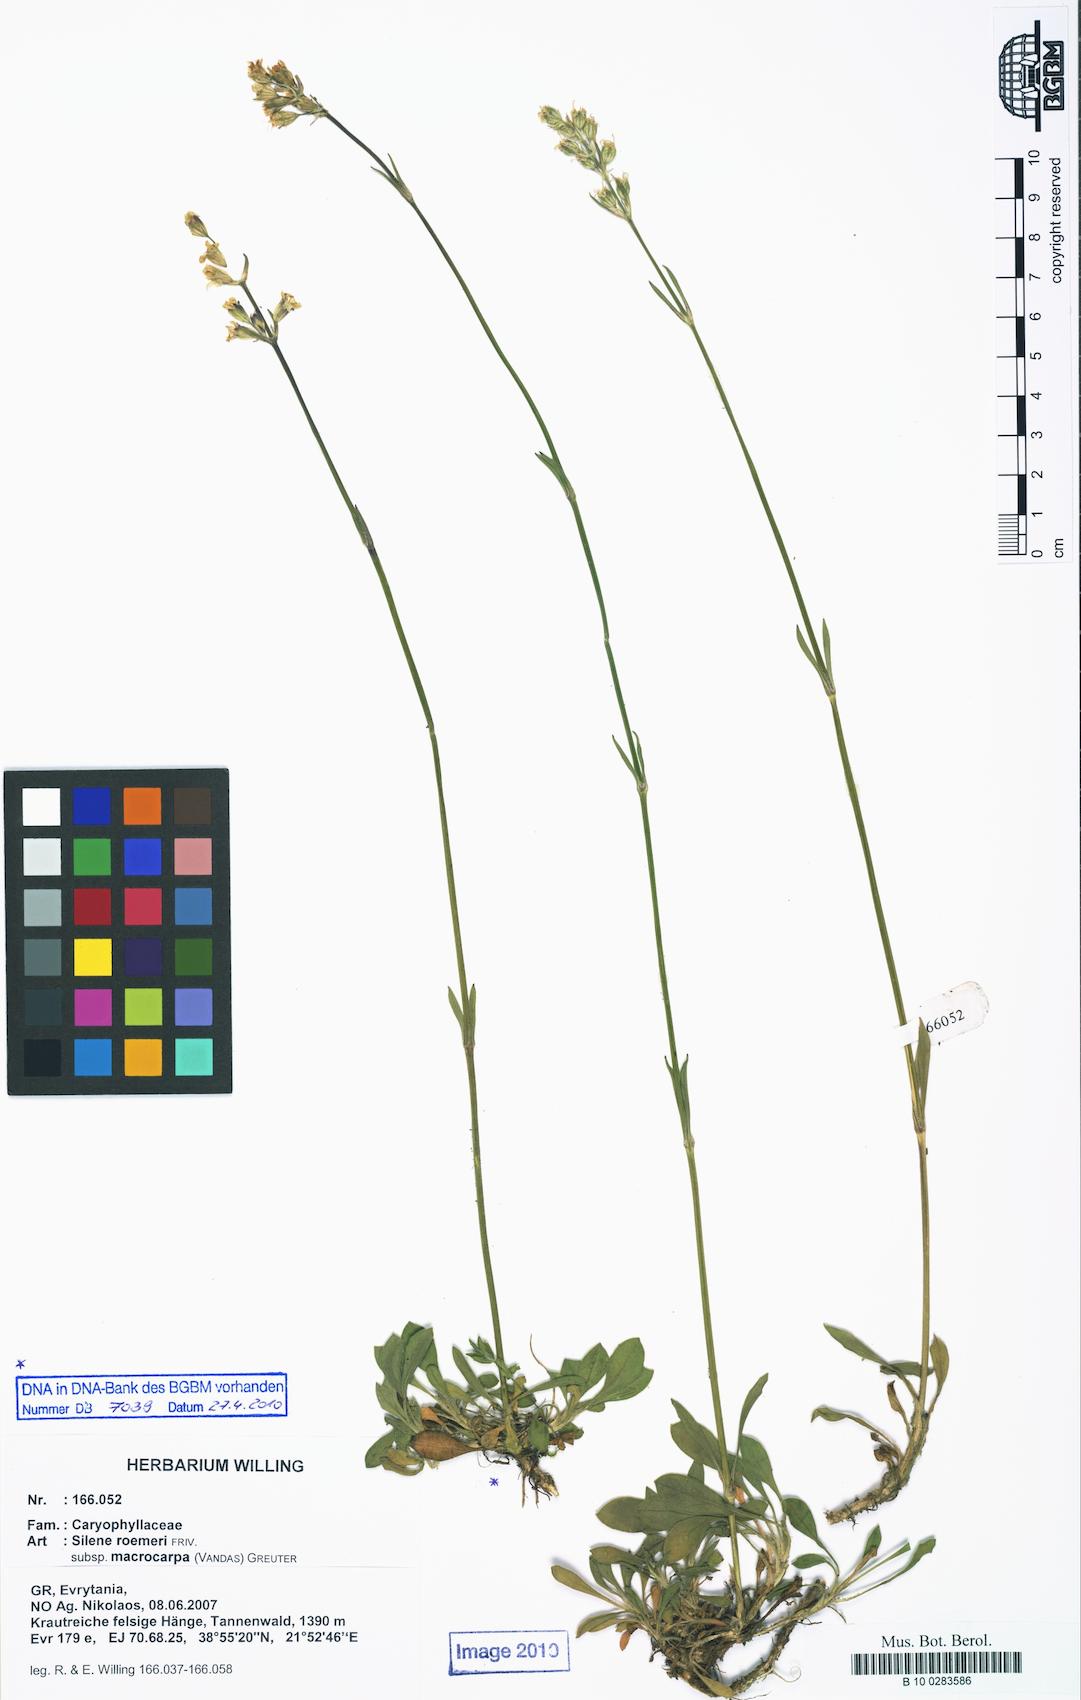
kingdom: Plantae
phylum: Tracheophyta
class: Magnoliopsida
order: Caryophyllales
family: Caryophyllaceae
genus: Silene
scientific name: Silene roemeri
